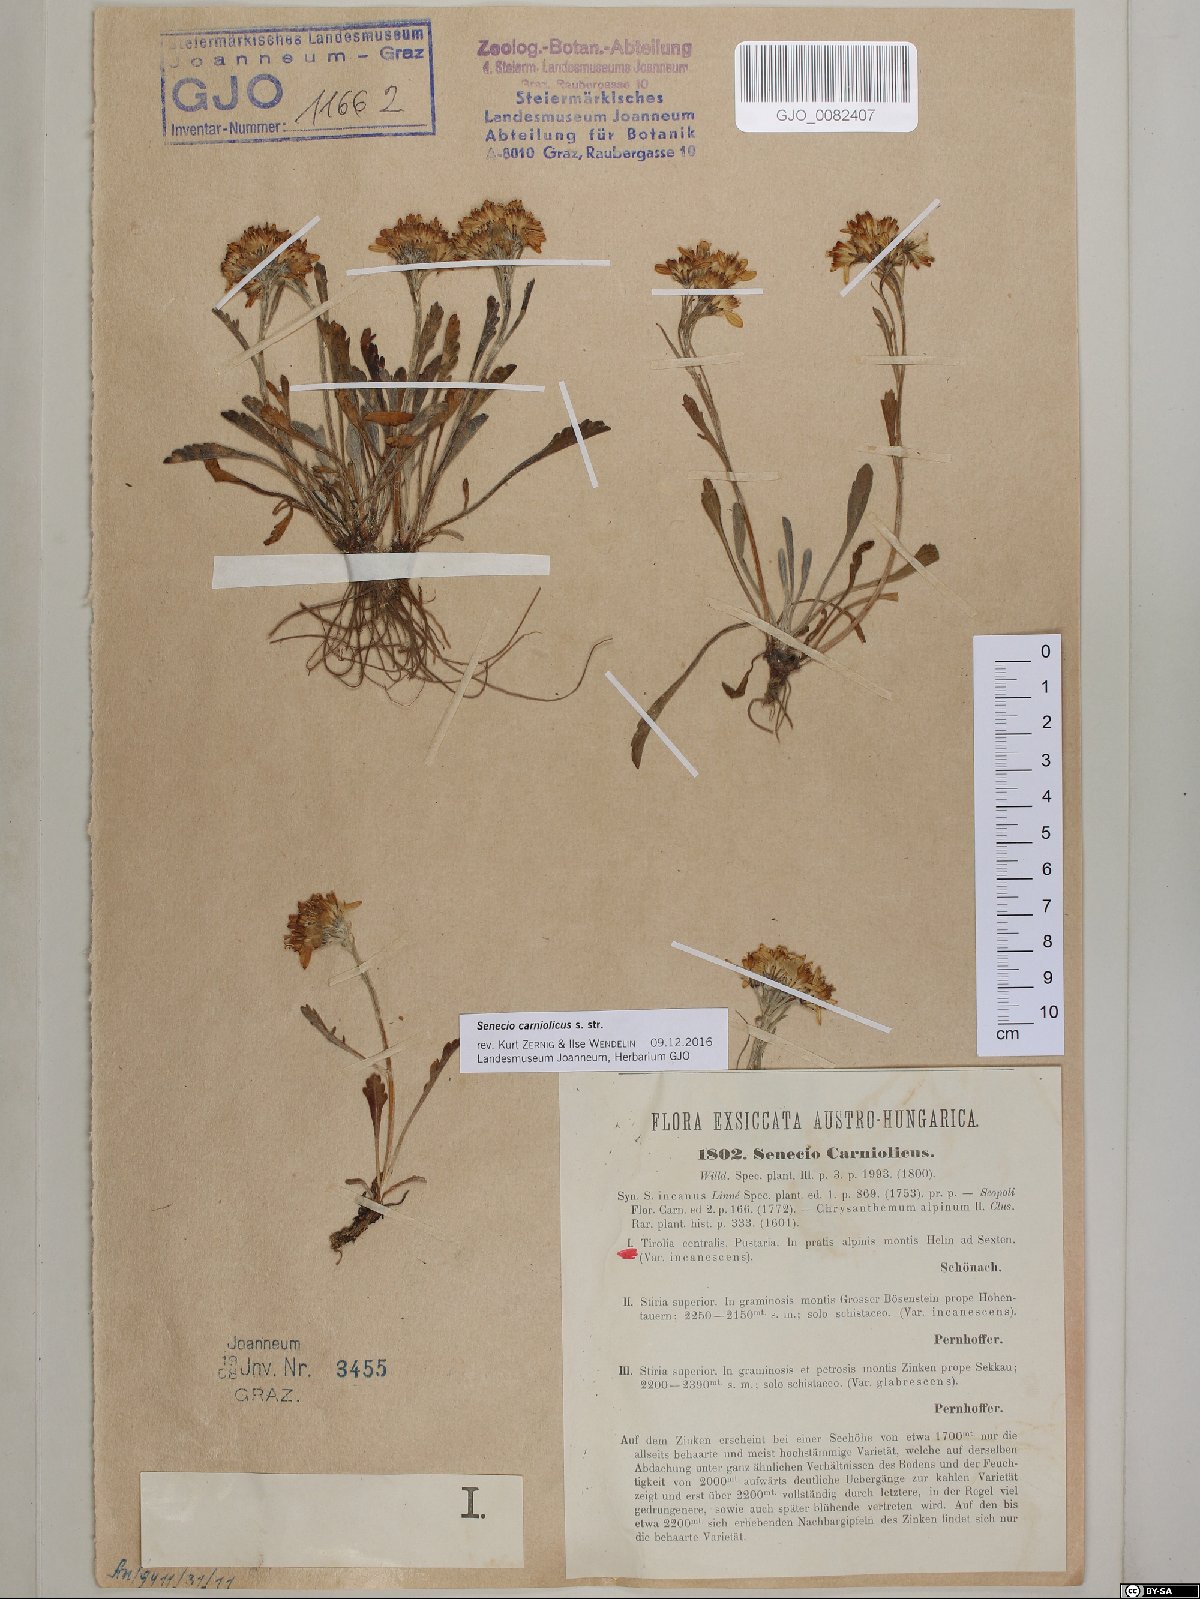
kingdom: Plantae
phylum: Tracheophyta
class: Magnoliopsida
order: Asterales
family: Asteraceae
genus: Jacobaea
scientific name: Jacobaea carniolica
